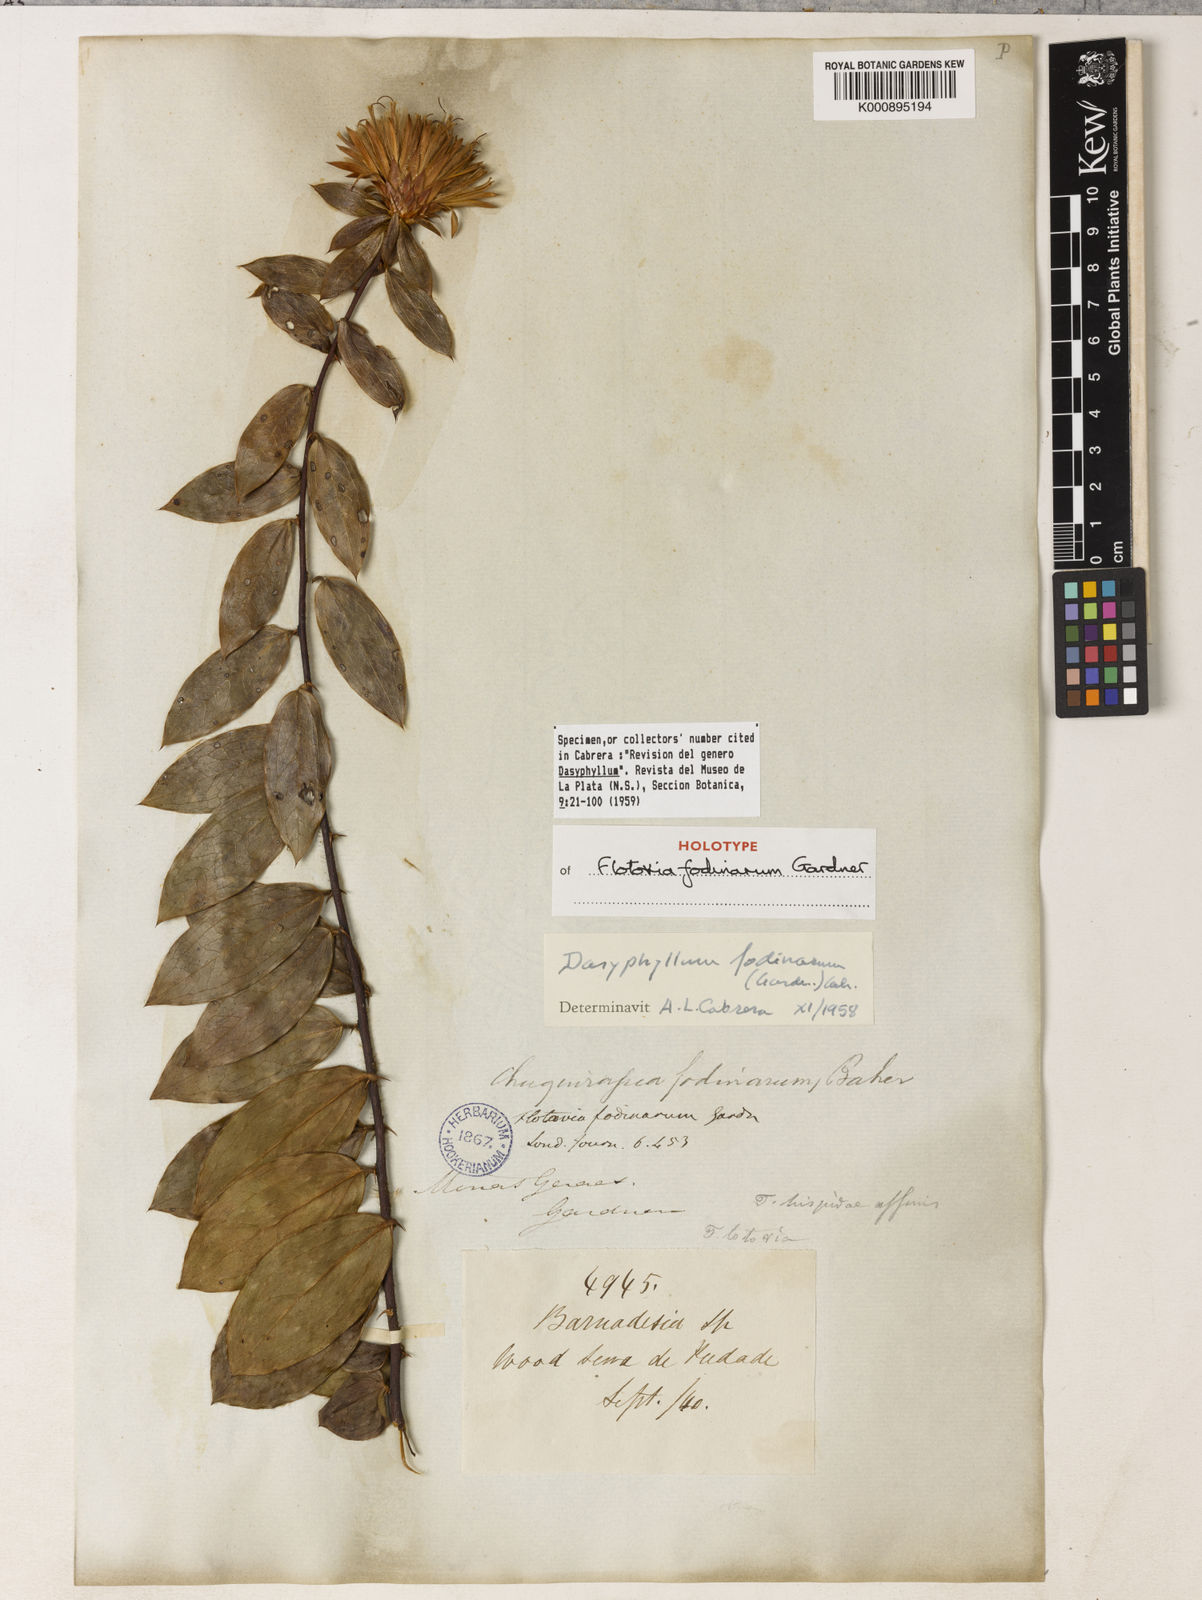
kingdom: Plantae
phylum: Tracheophyta
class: Magnoliopsida
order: Asterales
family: Asteraceae
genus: Dasyphyllum
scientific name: Dasyphyllum fodinarum
